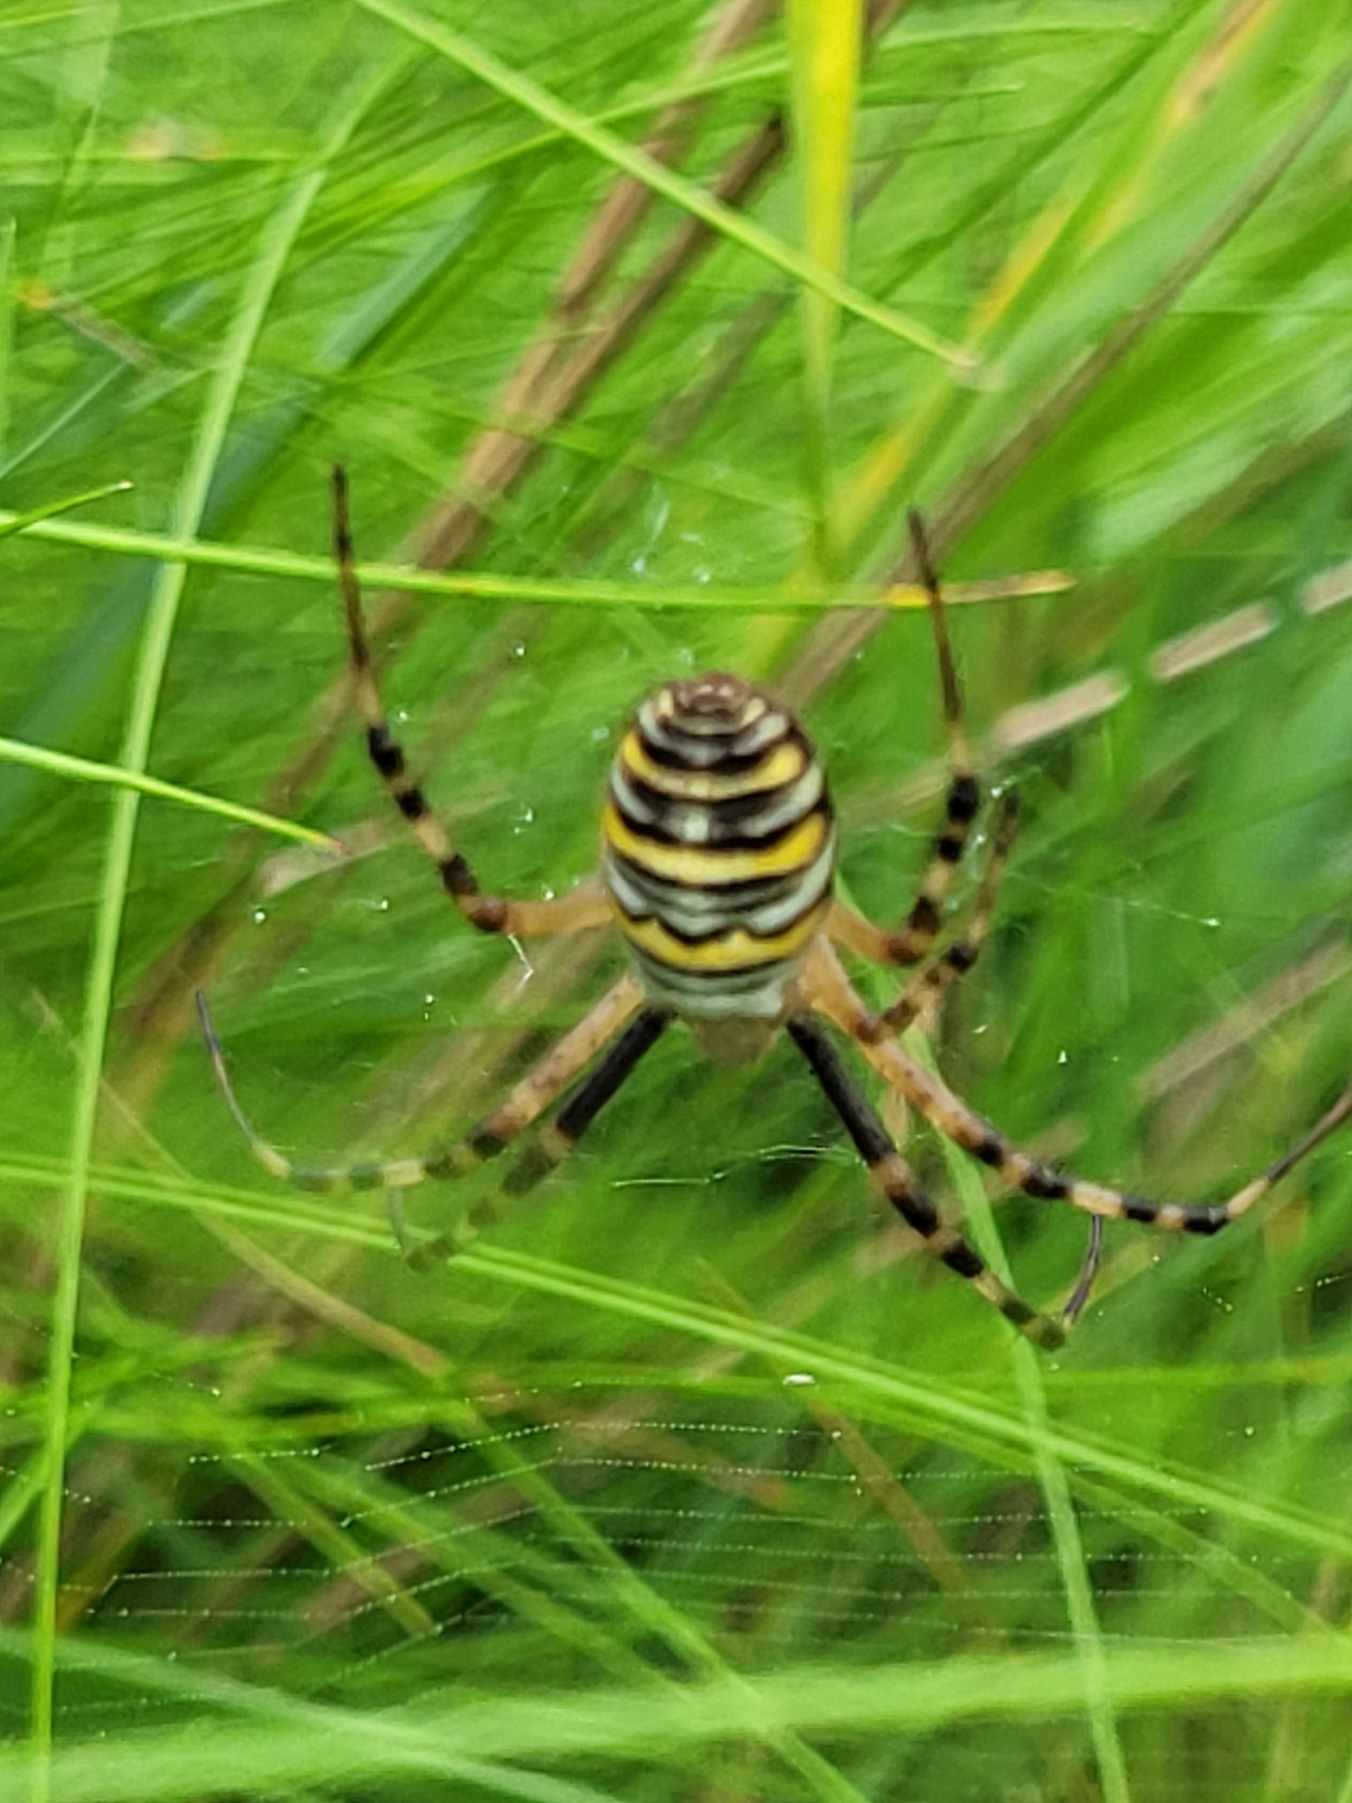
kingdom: Animalia
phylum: Arthropoda
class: Arachnida
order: Araneae
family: Araneidae
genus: Argiope
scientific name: Argiope bruennichi
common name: Hvepseedderkop
